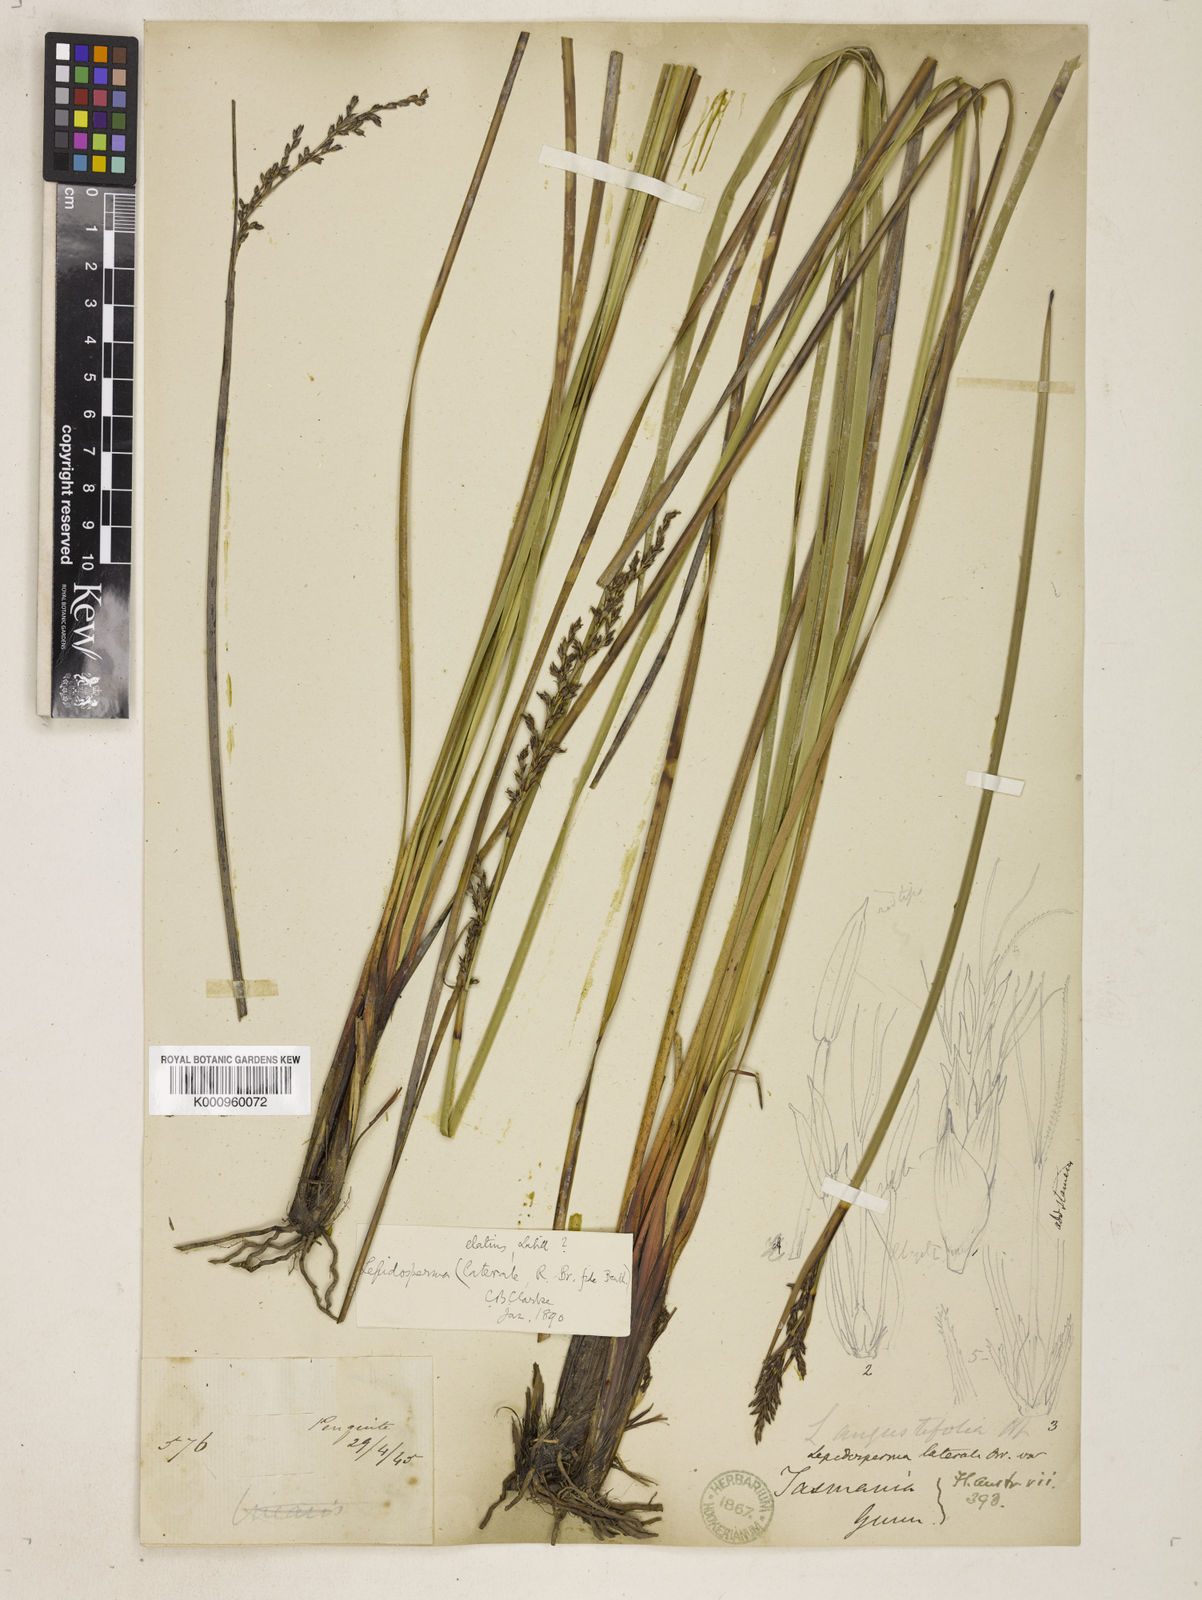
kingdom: Plantae
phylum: Tracheophyta
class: Liliopsida
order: Poales
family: Cyperaceae
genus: Lepidosperma
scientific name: Lepidosperma laterale
